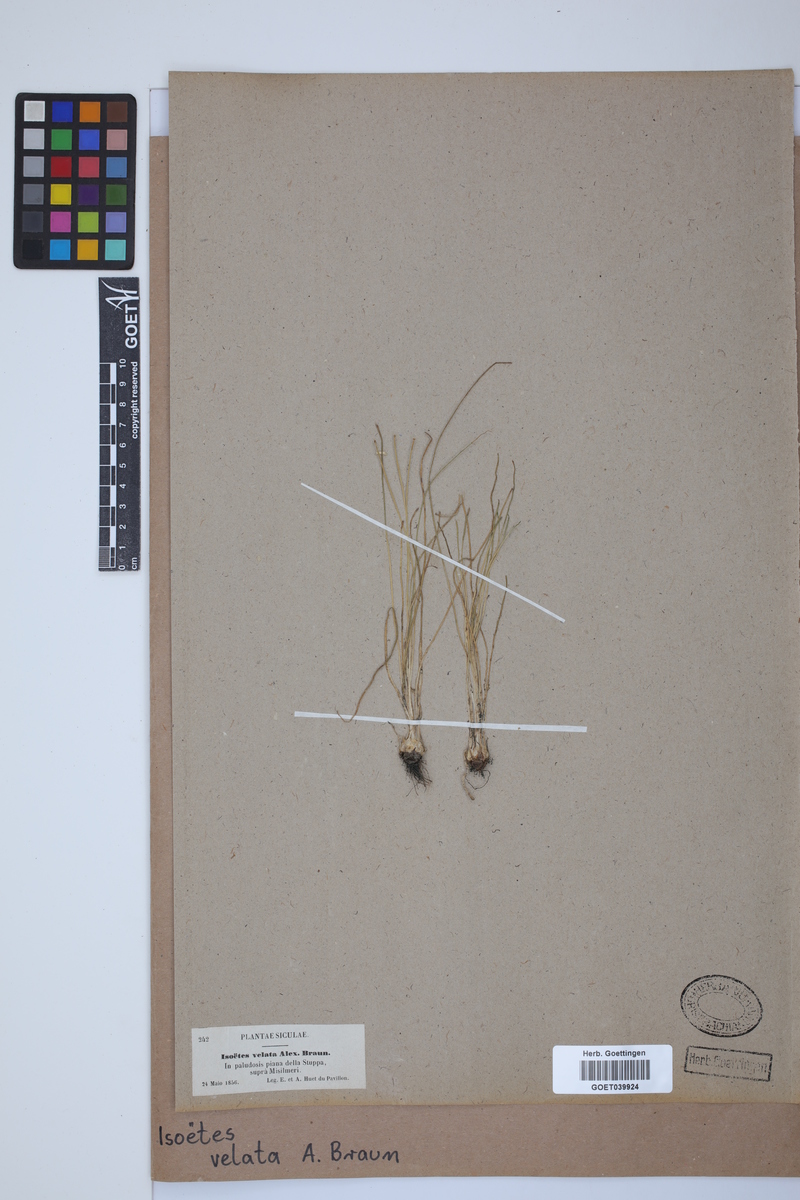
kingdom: Plantae
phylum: Tracheophyta
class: Lycopodiopsida
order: Isoetales
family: Isoetaceae
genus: Isoetes
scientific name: Isoetes longissima
